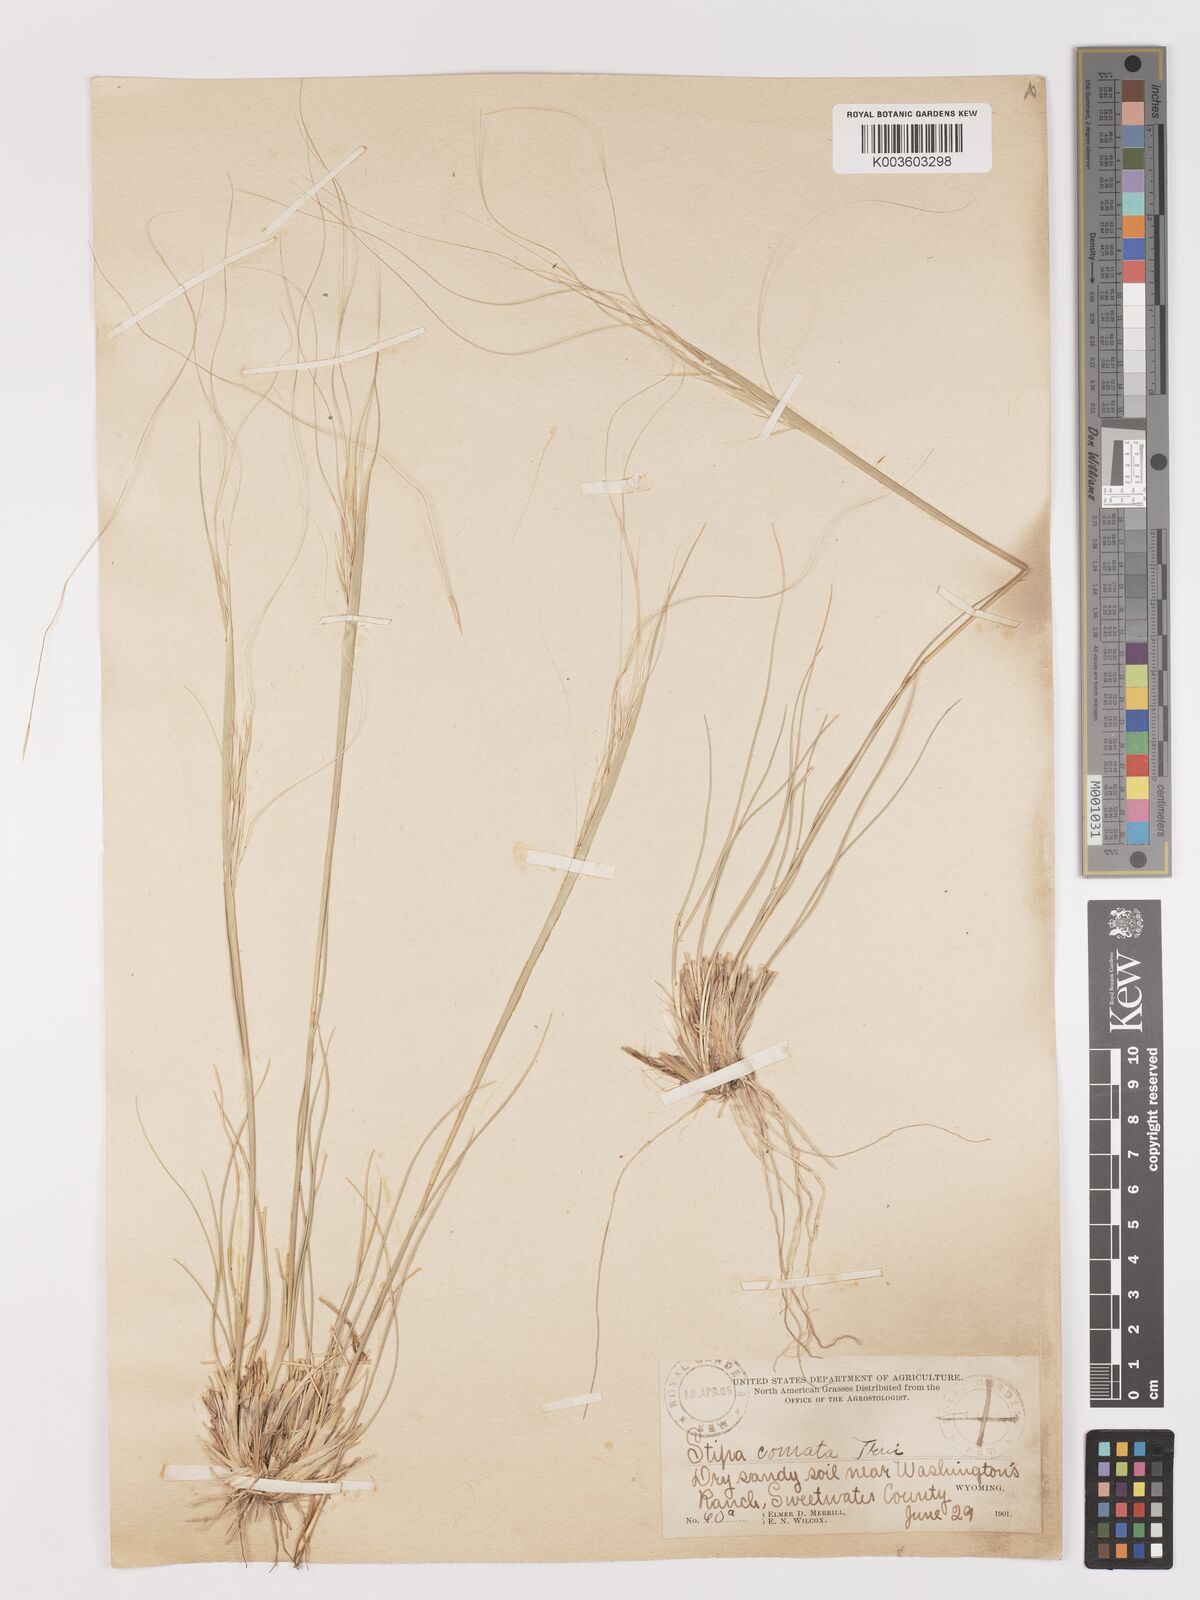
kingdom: Plantae
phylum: Tracheophyta
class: Liliopsida
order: Poales
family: Poaceae
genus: Stipa
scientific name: Stipa
